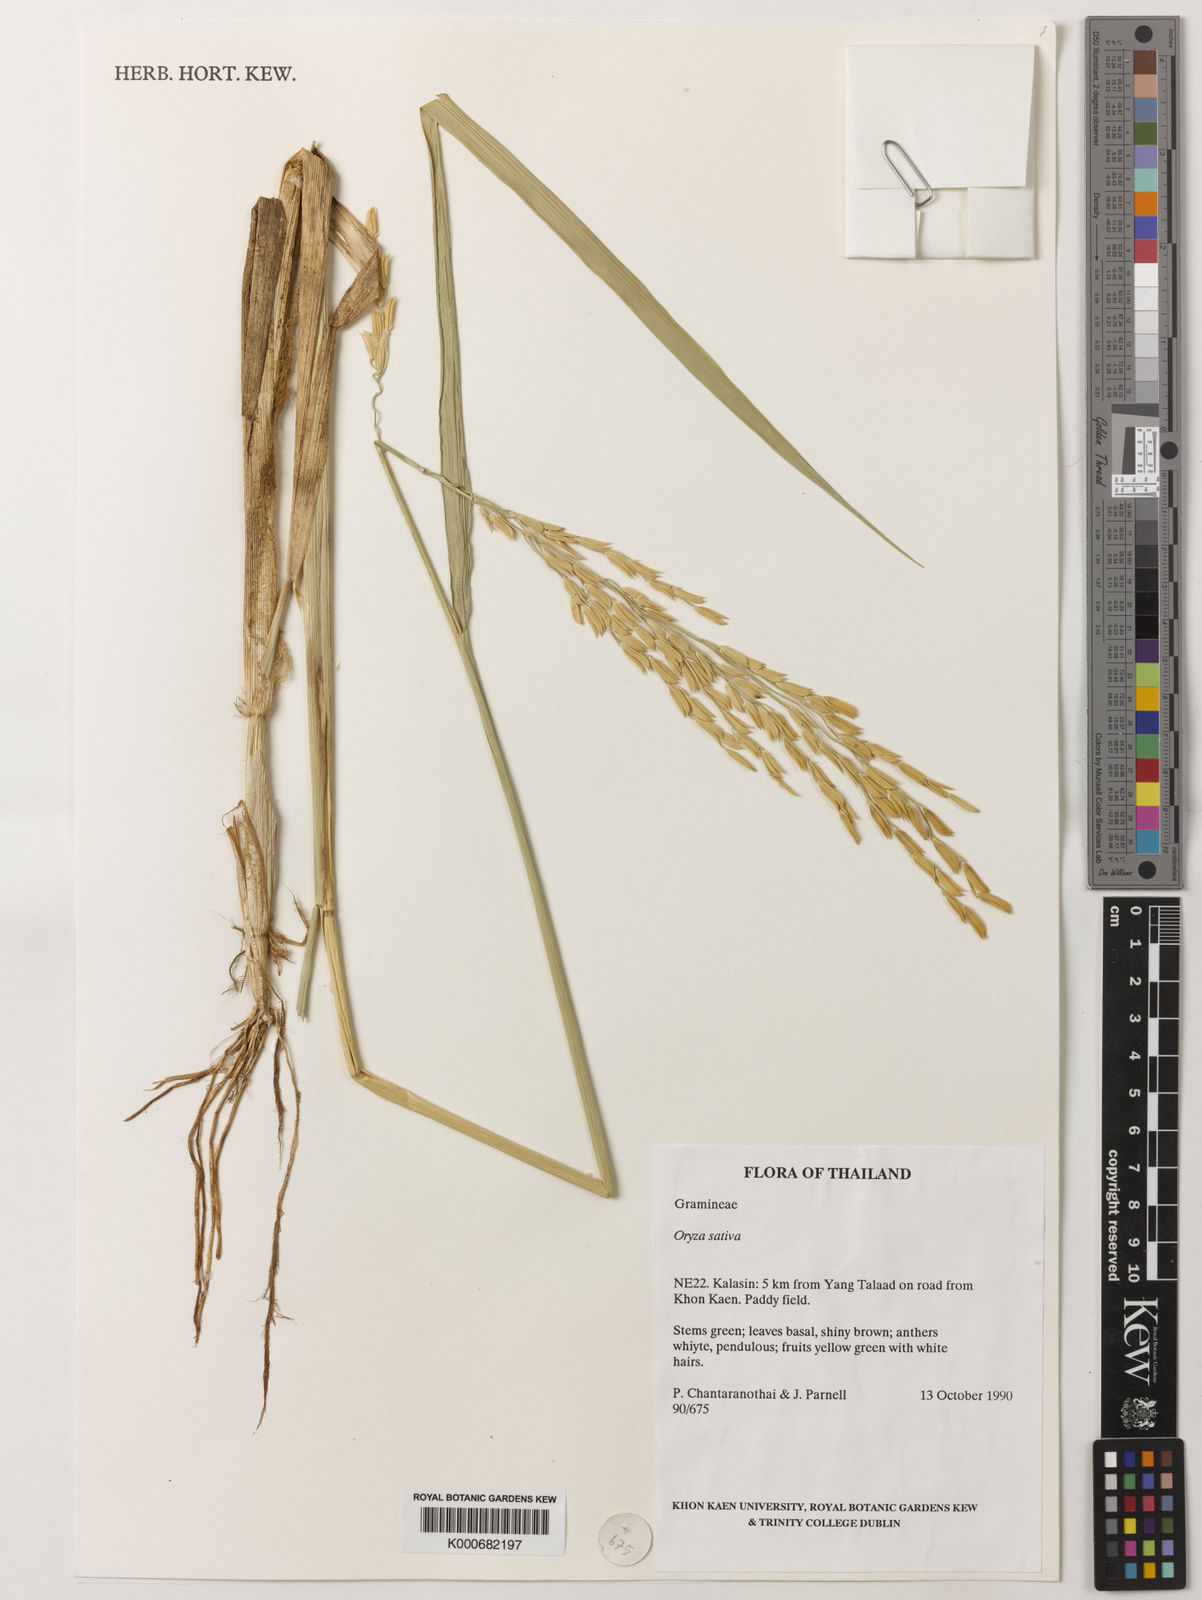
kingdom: Plantae
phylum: Tracheophyta
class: Liliopsida
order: Poales
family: Poaceae
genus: Oryza
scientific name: Oryza sativa
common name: Rice
